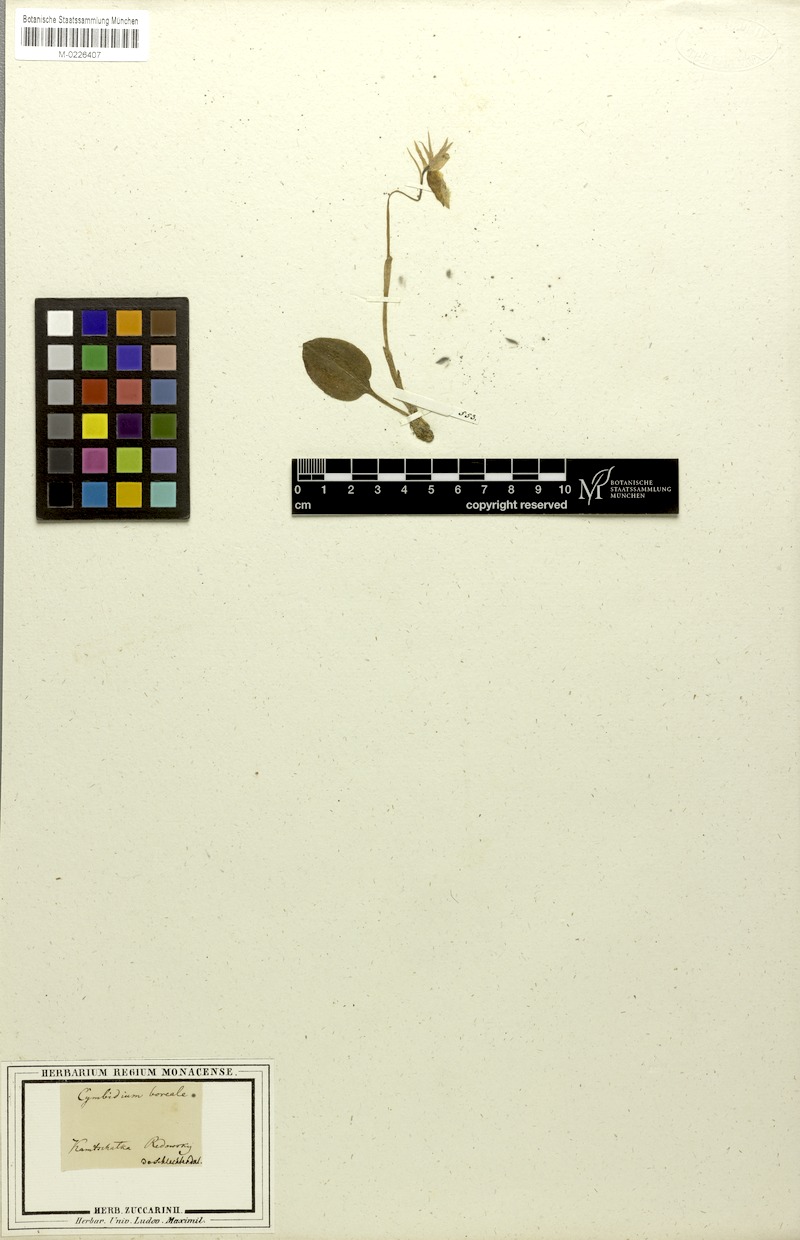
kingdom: Plantae
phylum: Tracheophyta
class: Liliopsida
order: Asparagales
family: Orchidaceae
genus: Calypso
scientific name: Calypso bulbosa
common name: Calypso
